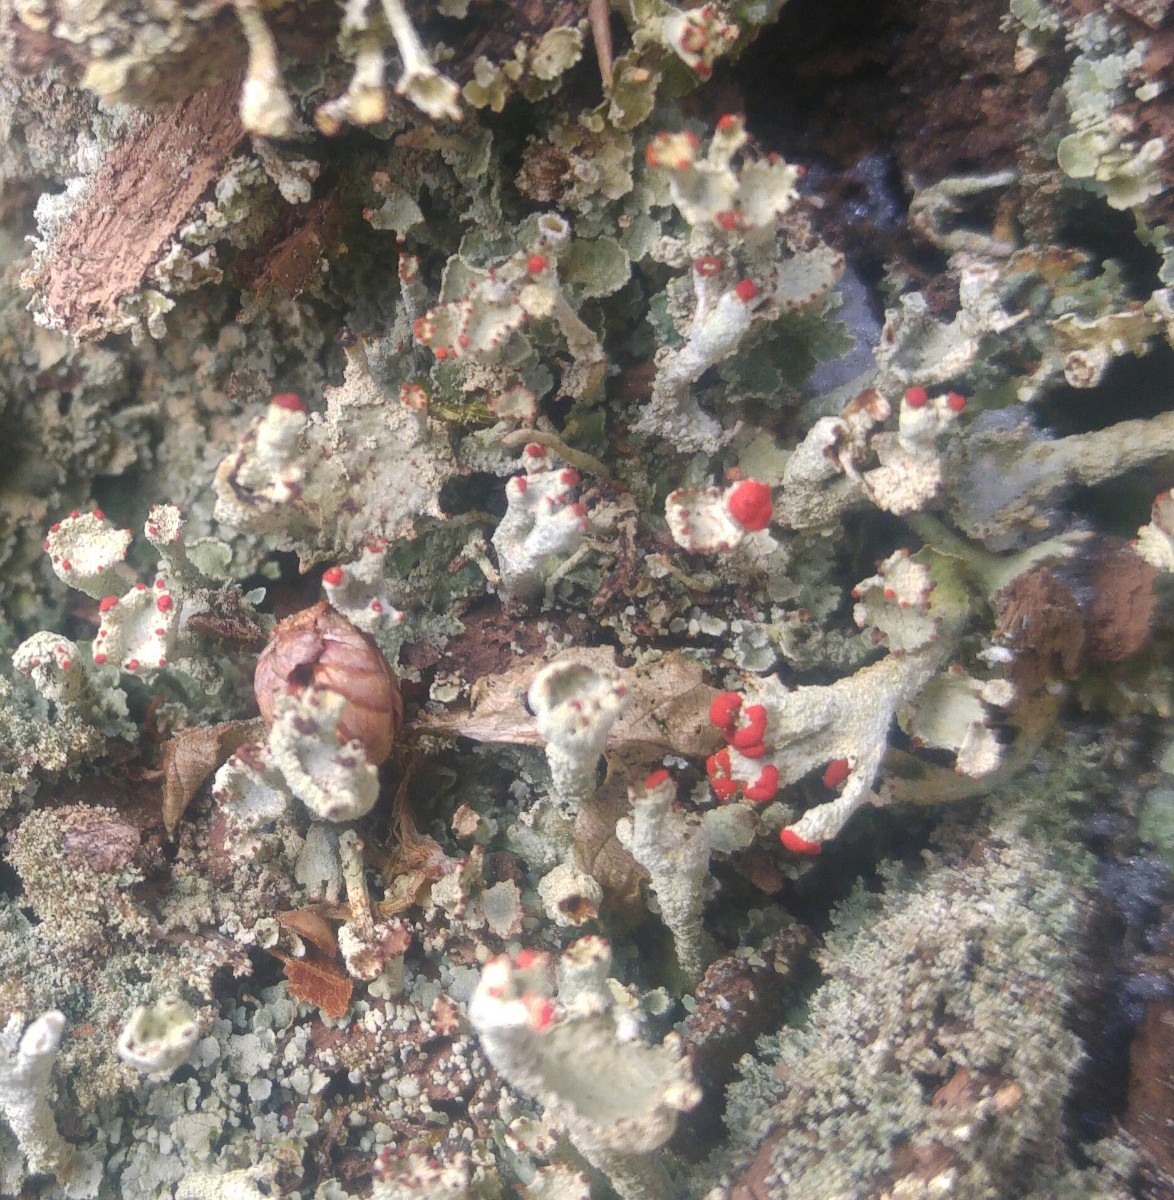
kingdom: Fungi
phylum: Ascomycota
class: Lecanoromycetes
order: Lecanorales
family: Cladoniaceae
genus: Cladonia
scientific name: Cladonia digitata
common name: finger-bægerlav
